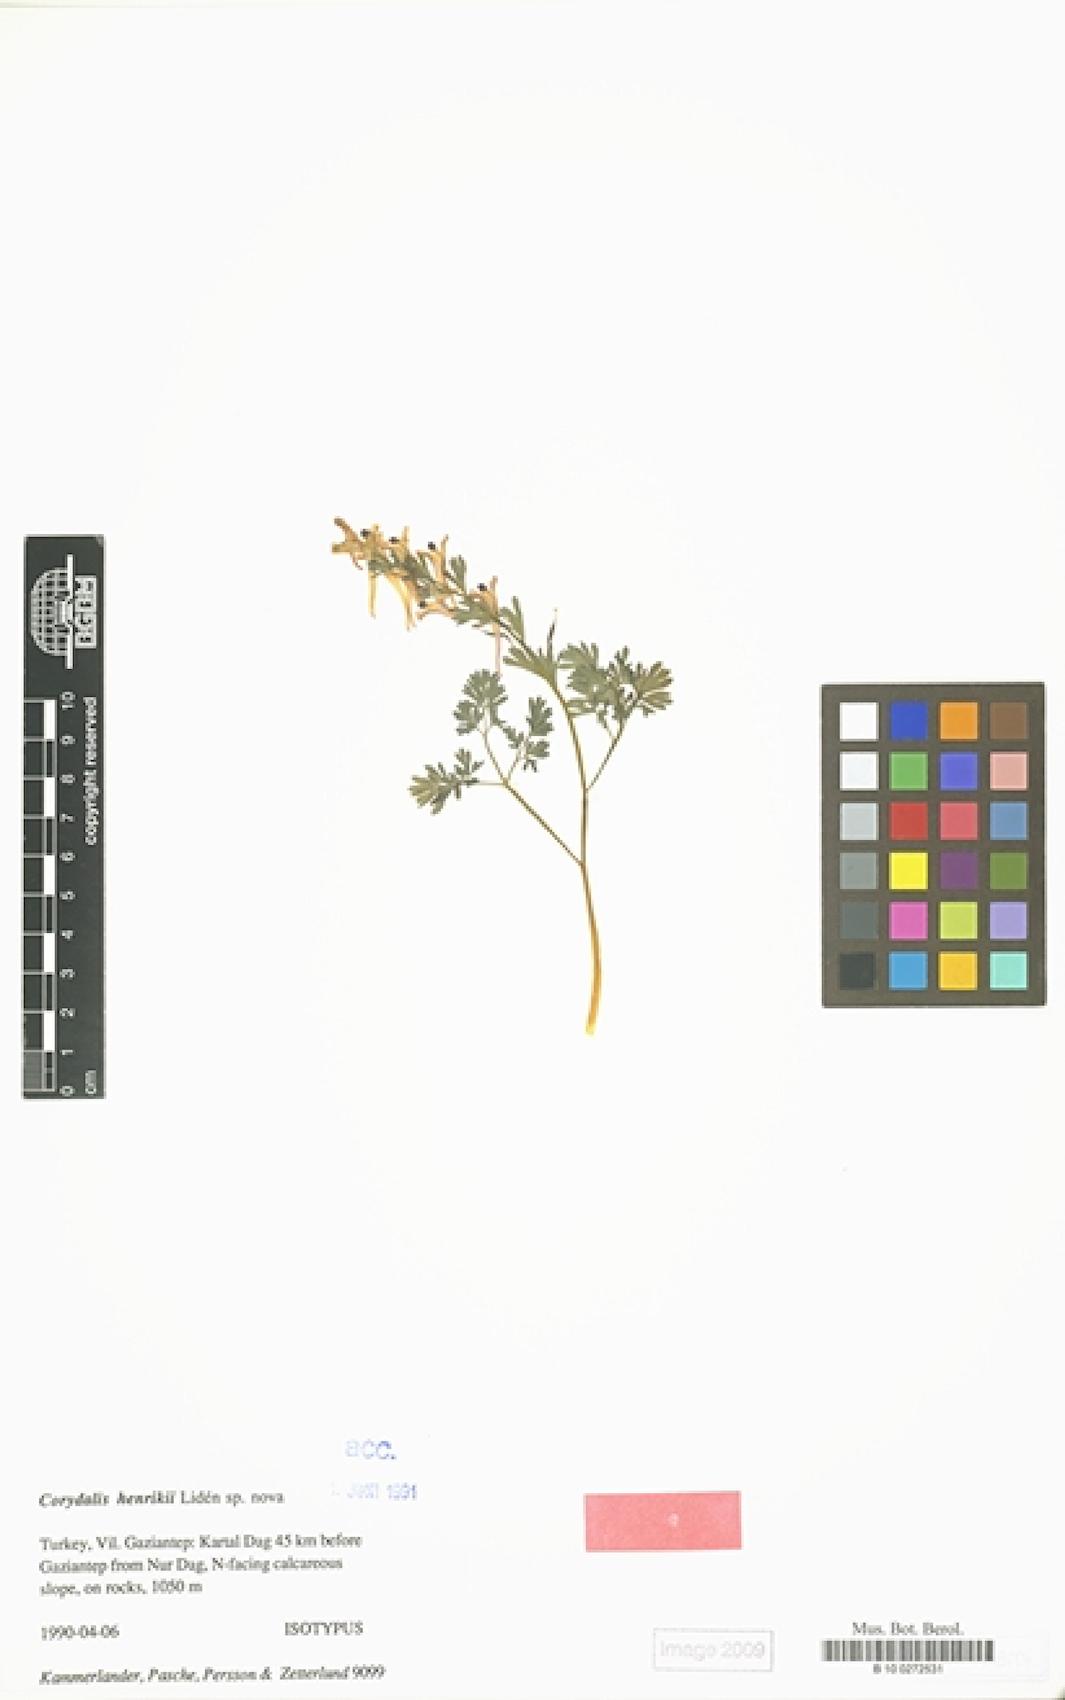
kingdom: Plantae
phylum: Tracheophyta
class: Magnoliopsida
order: Ranunculales
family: Papaveraceae
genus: Corydalis
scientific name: Corydalis henrikii
